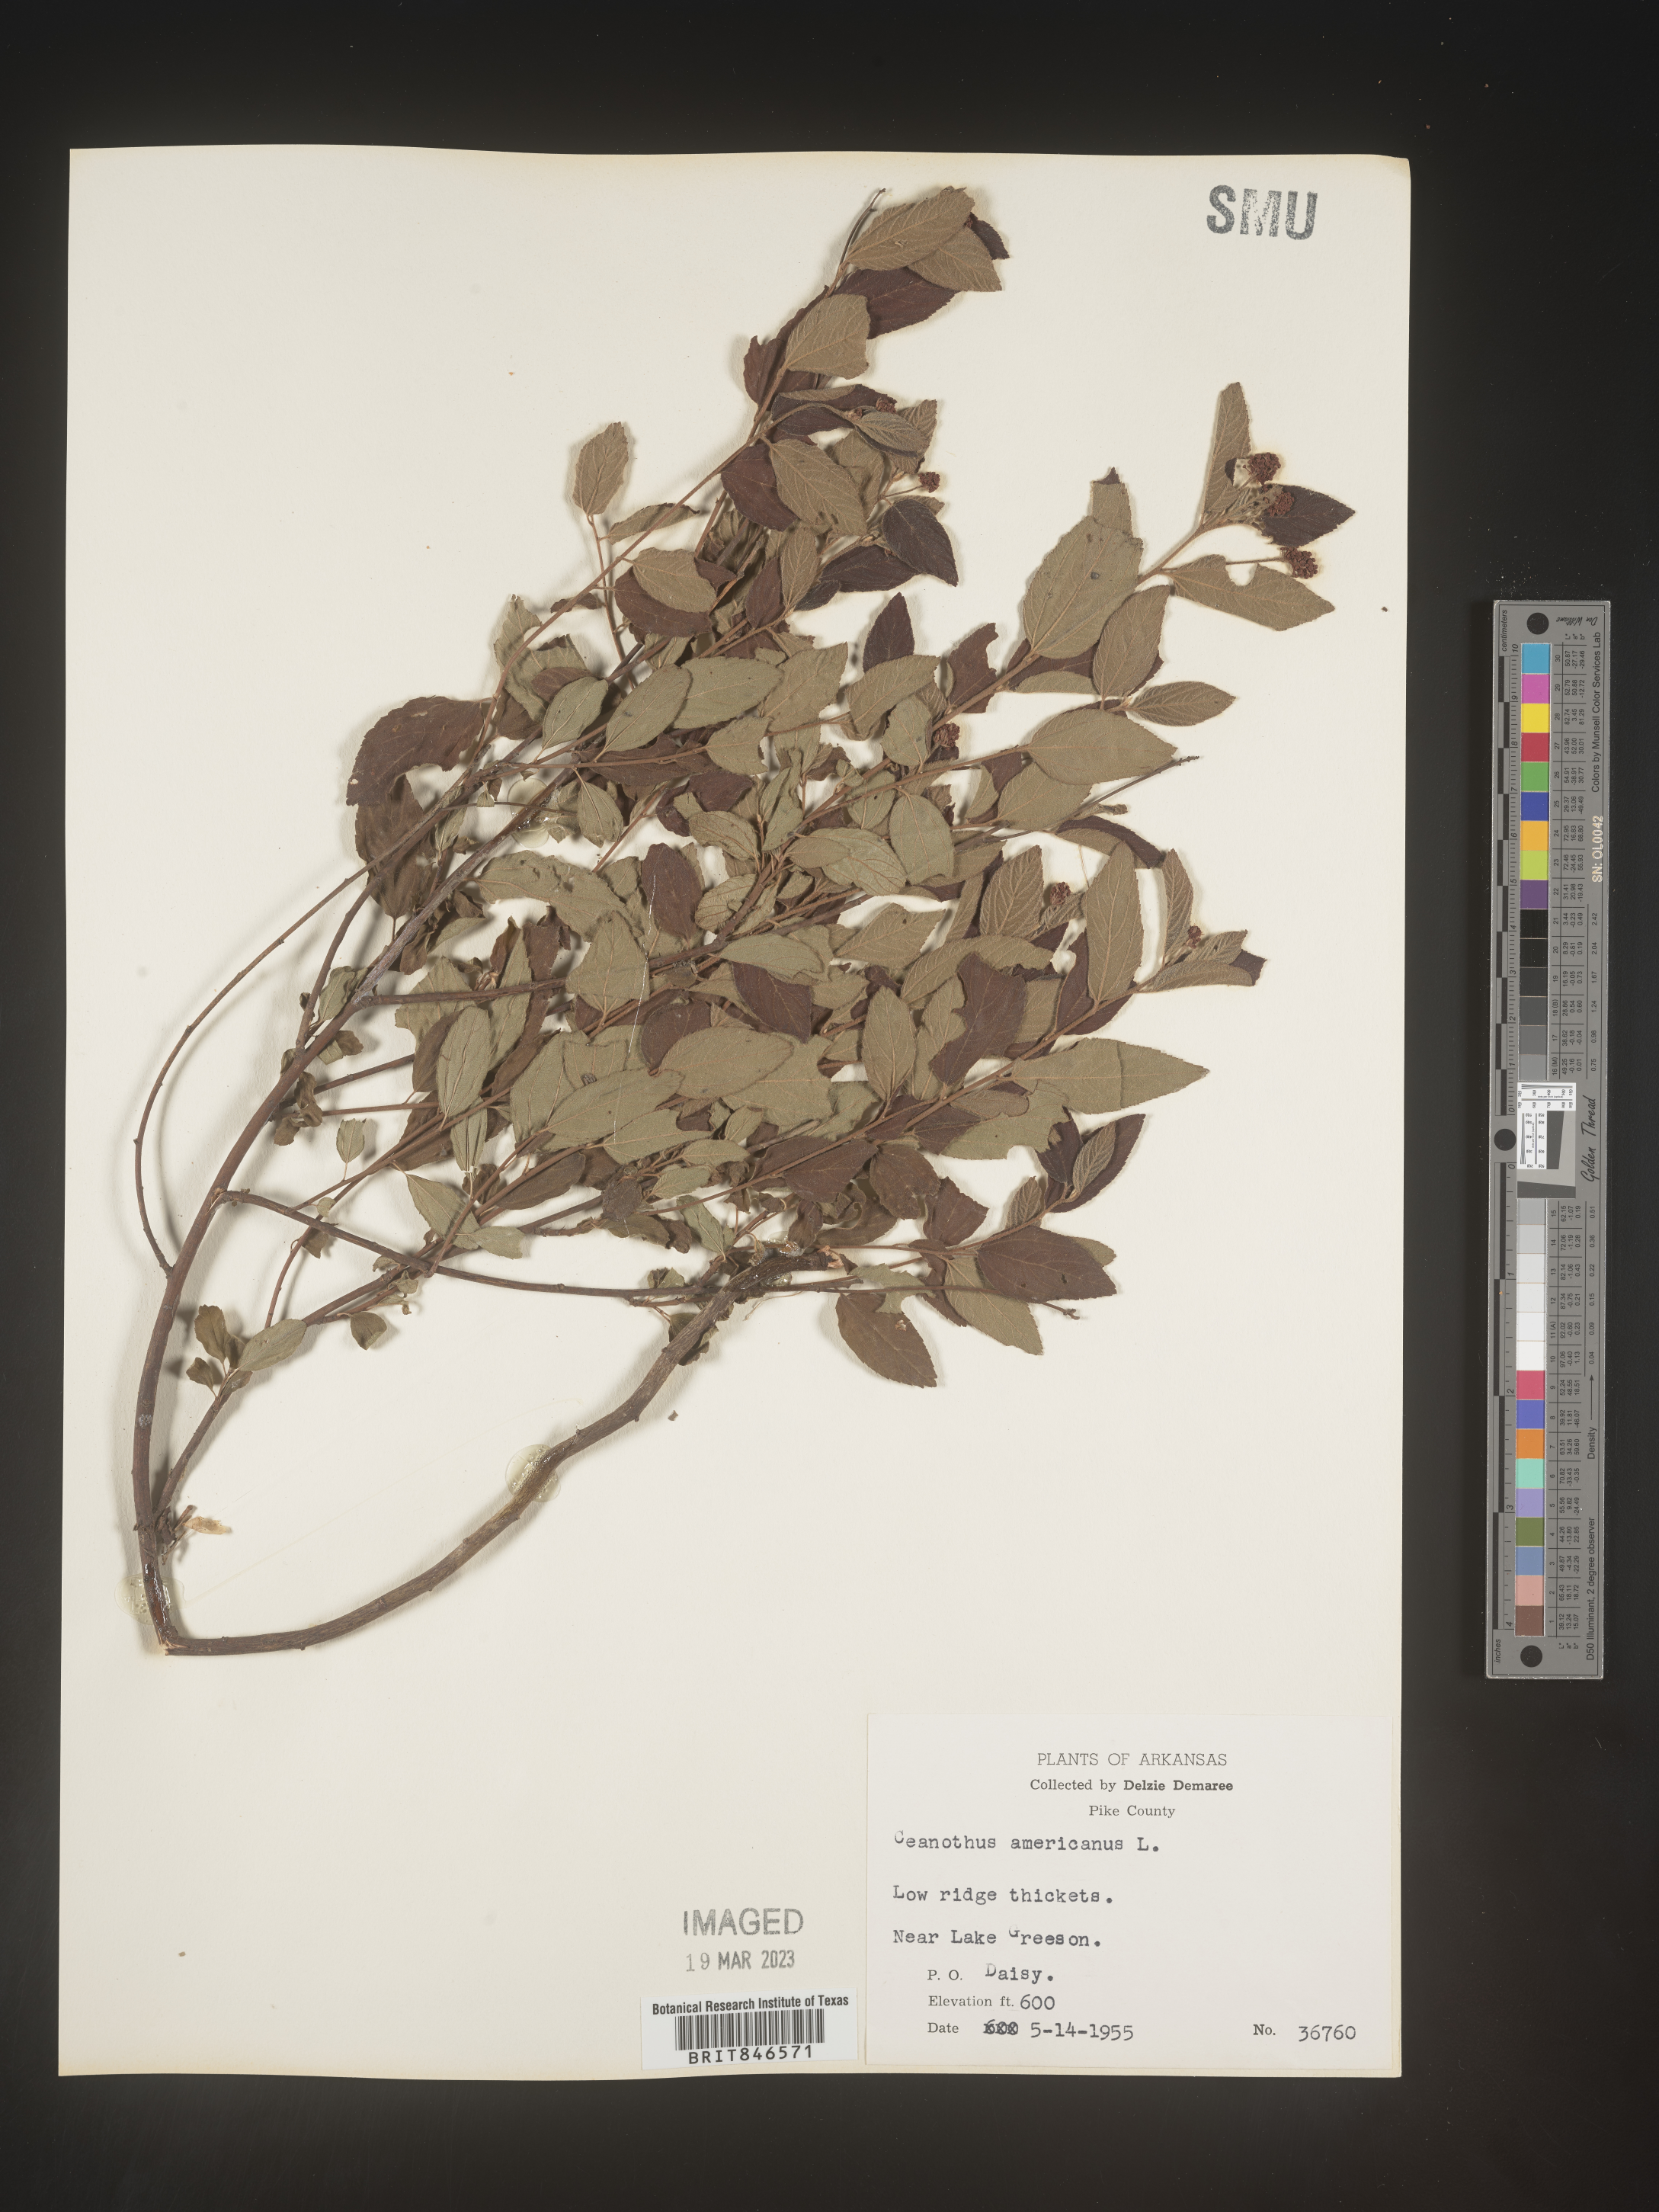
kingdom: Plantae
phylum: Tracheophyta
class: Magnoliopsida
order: Rosales
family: Rhamnaceae
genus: Ceanothus
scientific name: Ceanothus americanus
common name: Redroot
